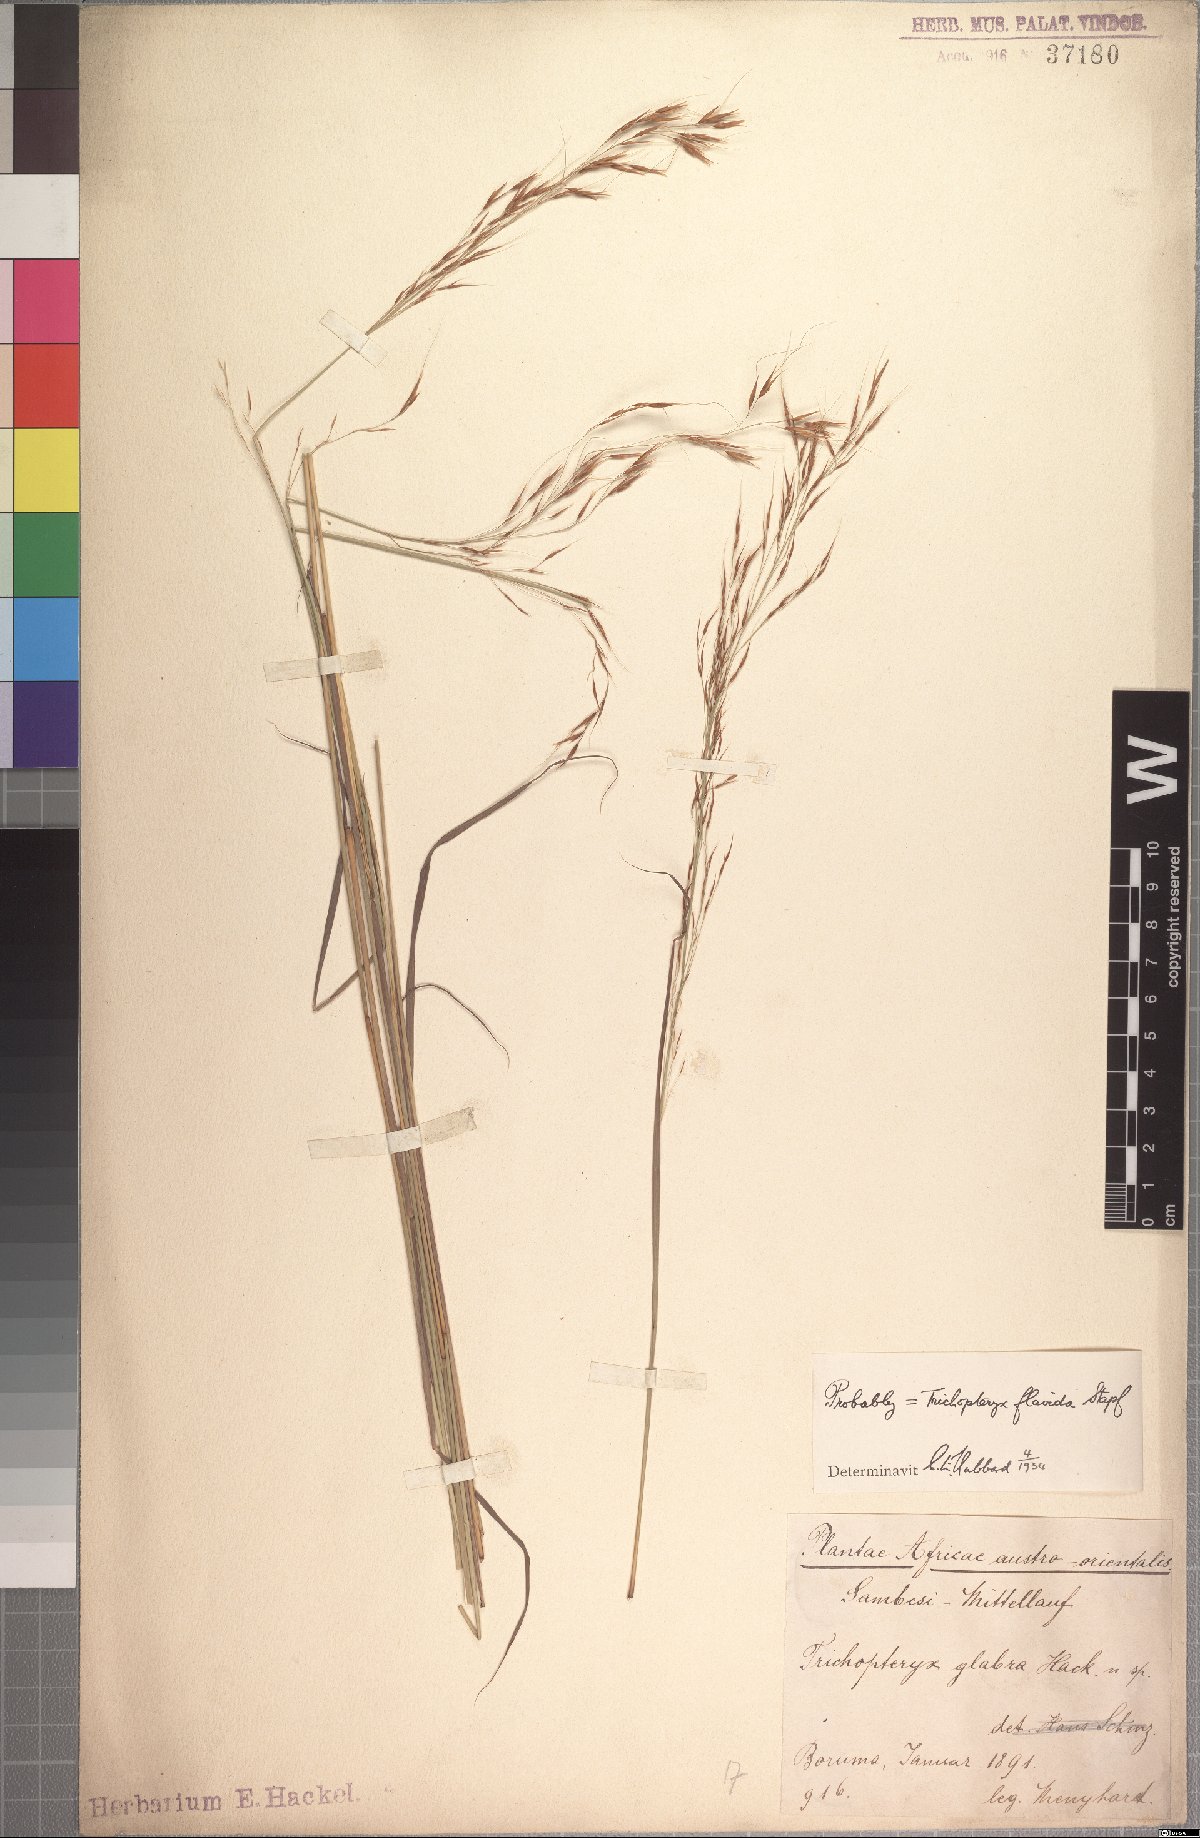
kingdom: Plantae
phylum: Tracheophyta
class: Liliopsida
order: Poales
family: Poaceae
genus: Loudetia
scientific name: Loudetia flavida
